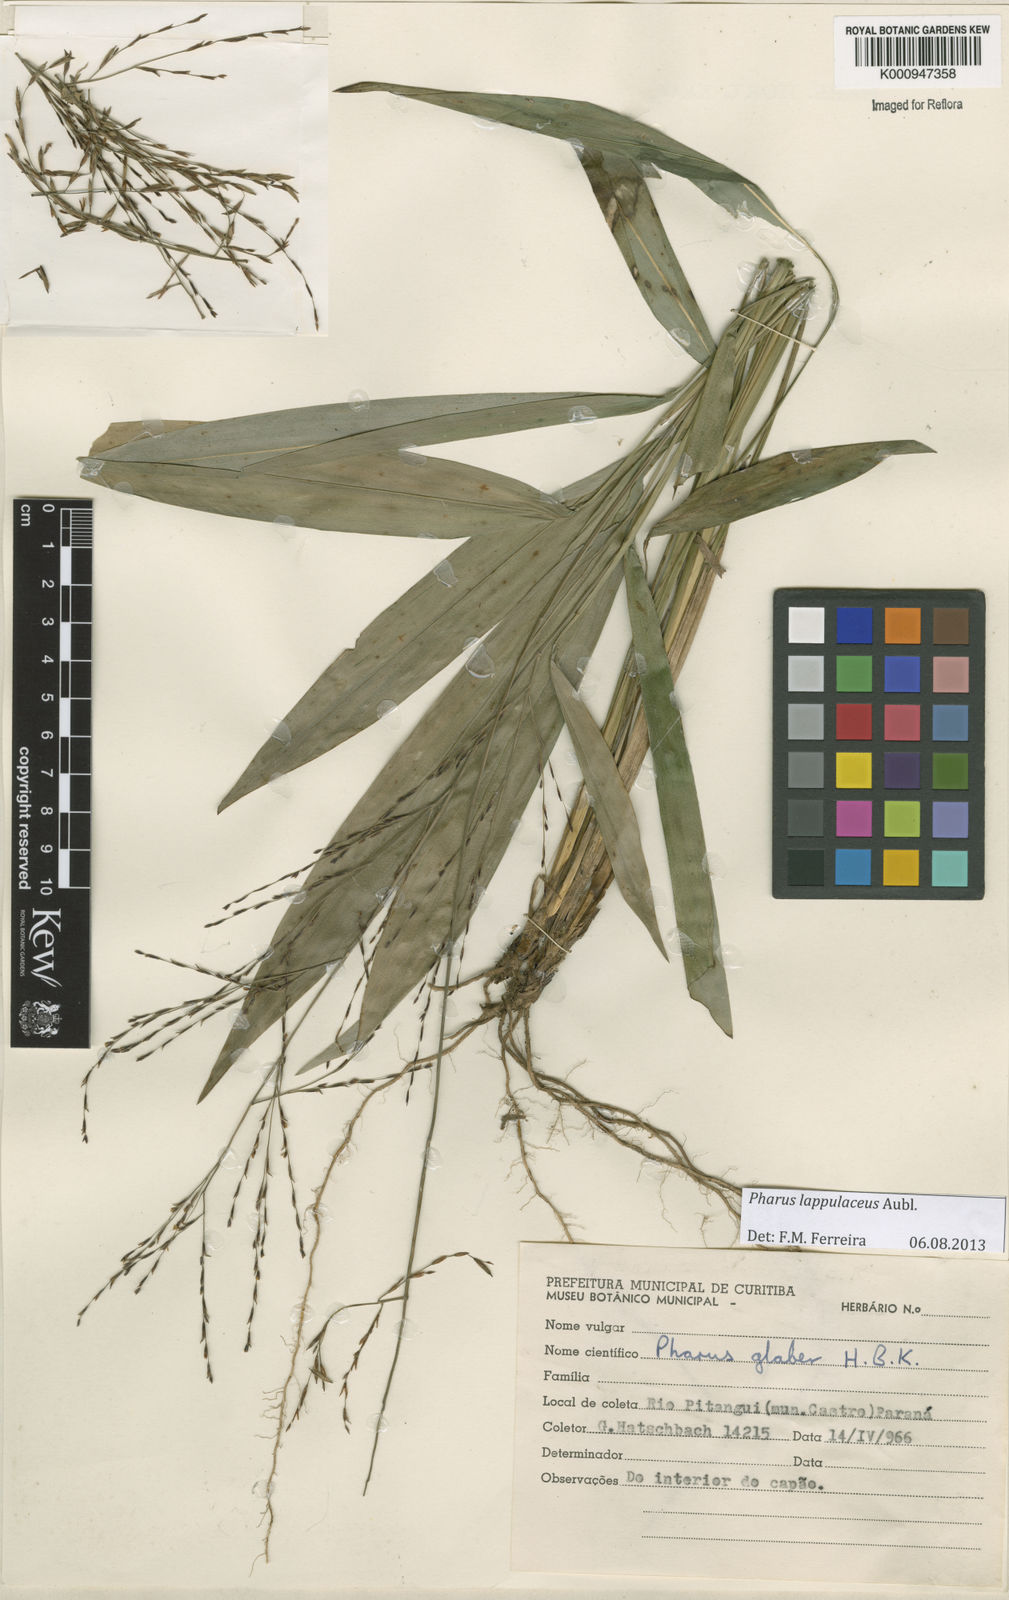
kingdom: Plantae
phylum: Tracheophyta
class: Liliopsida
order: Poales
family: Poaceae
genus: Pharus
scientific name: Pharus lappulaceus
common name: Creeping leafstalk grass
